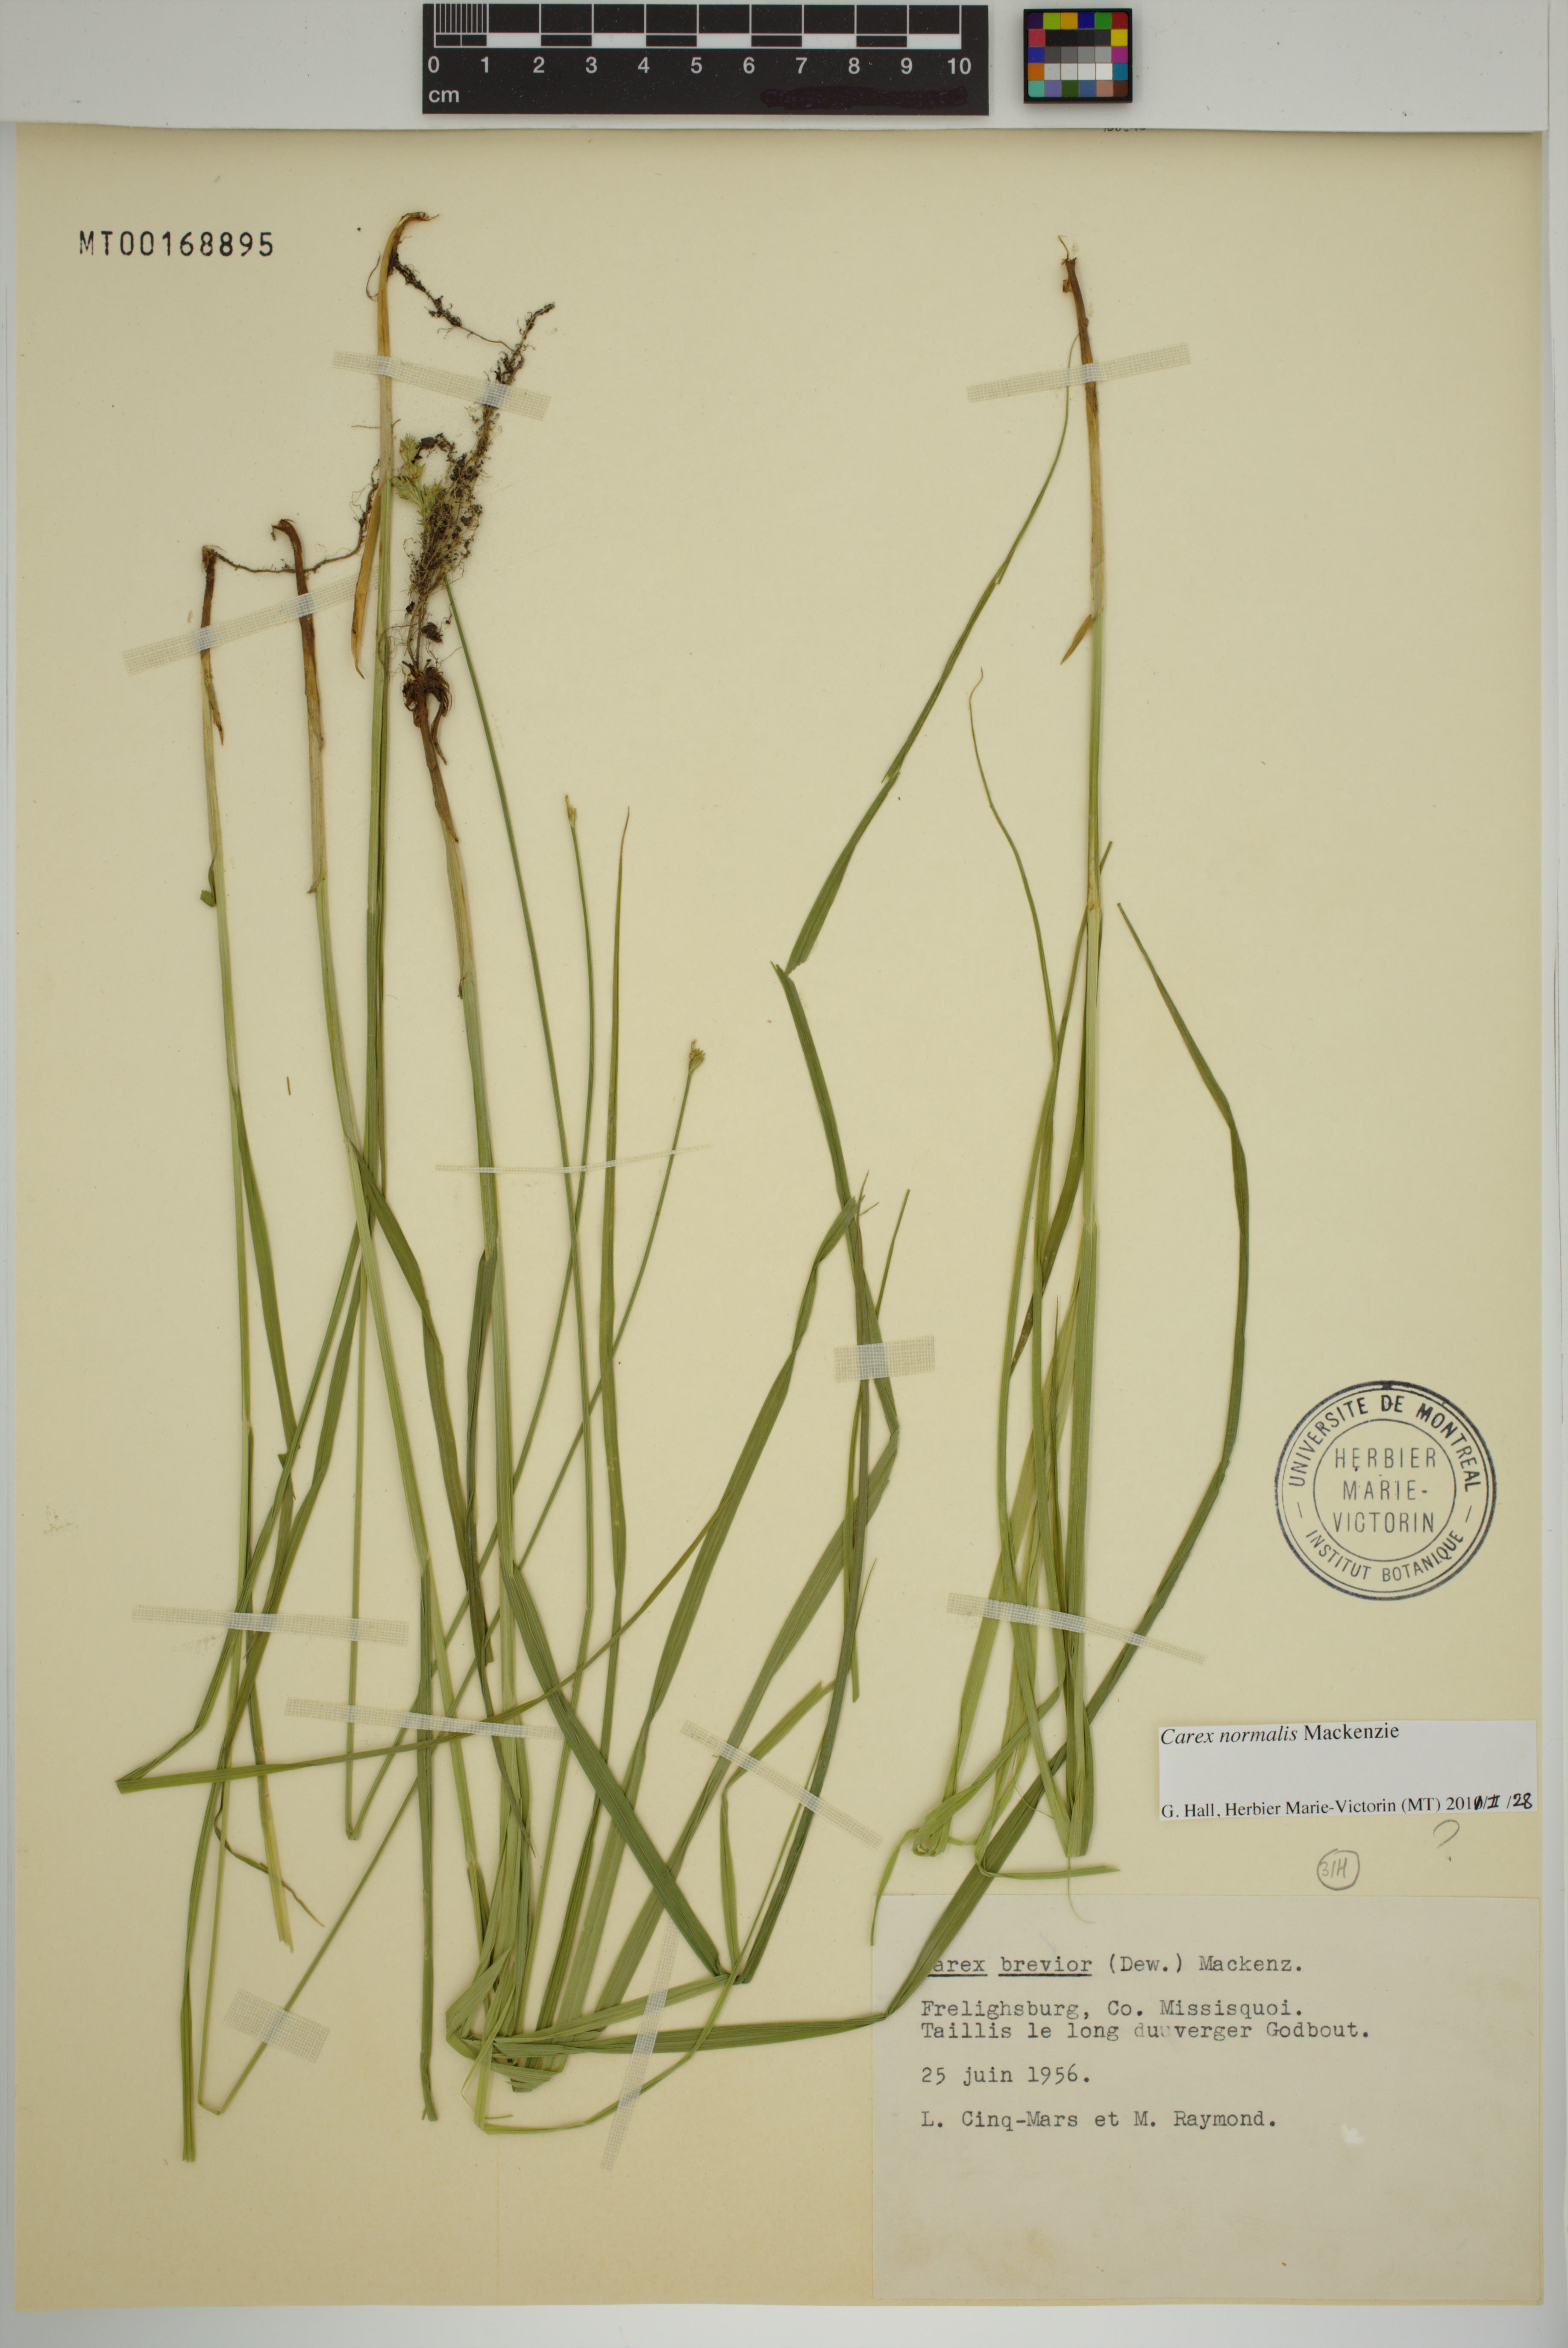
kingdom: Plantae
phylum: Tracheophyta
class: Liliopsida
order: Poales
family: Cyperaceae
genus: Carex
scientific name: Carex normalis
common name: Greater straw sedge
